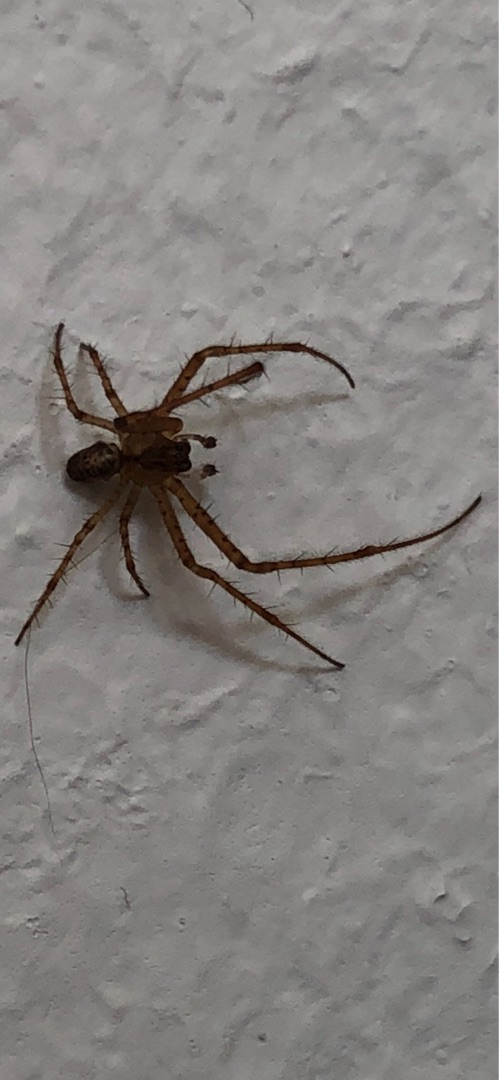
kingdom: Animalia
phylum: Arthropoda
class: Arachnida
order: Araneae
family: Tetragnathidae
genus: Metellina
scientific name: Metellina
